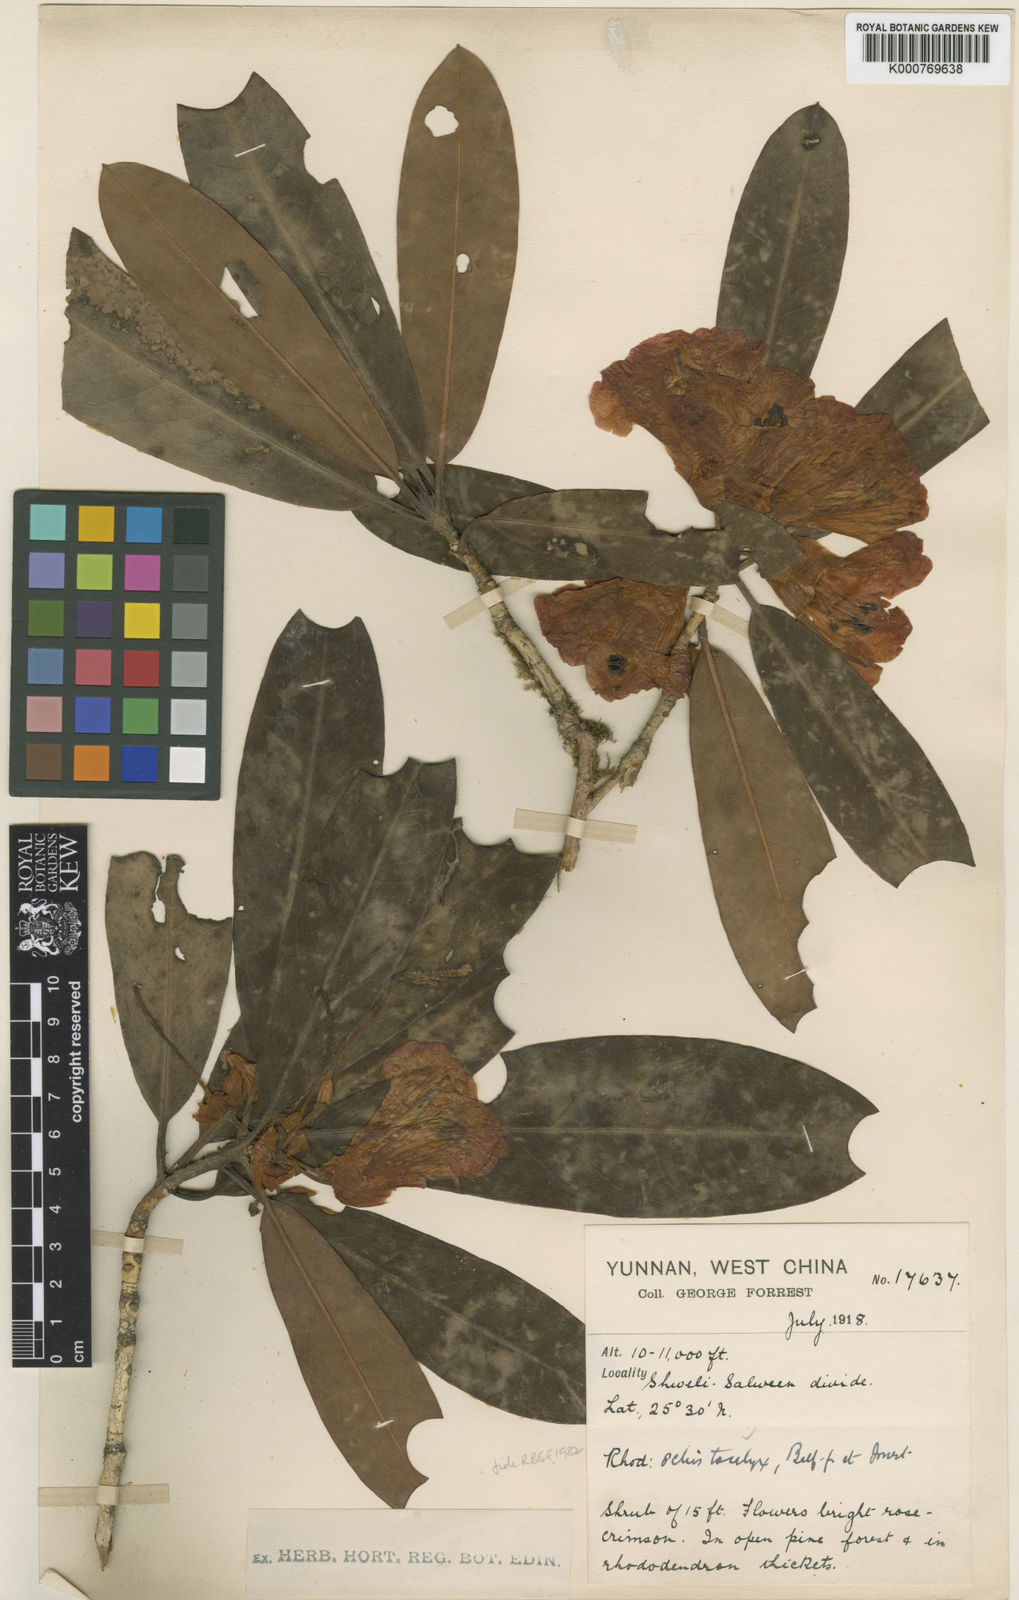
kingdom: Plantae
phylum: Tracheophyta
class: Magnoliopsida
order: Ericales
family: Ericaceae
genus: Rhododendron
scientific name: Rhododendron schistocalyx
